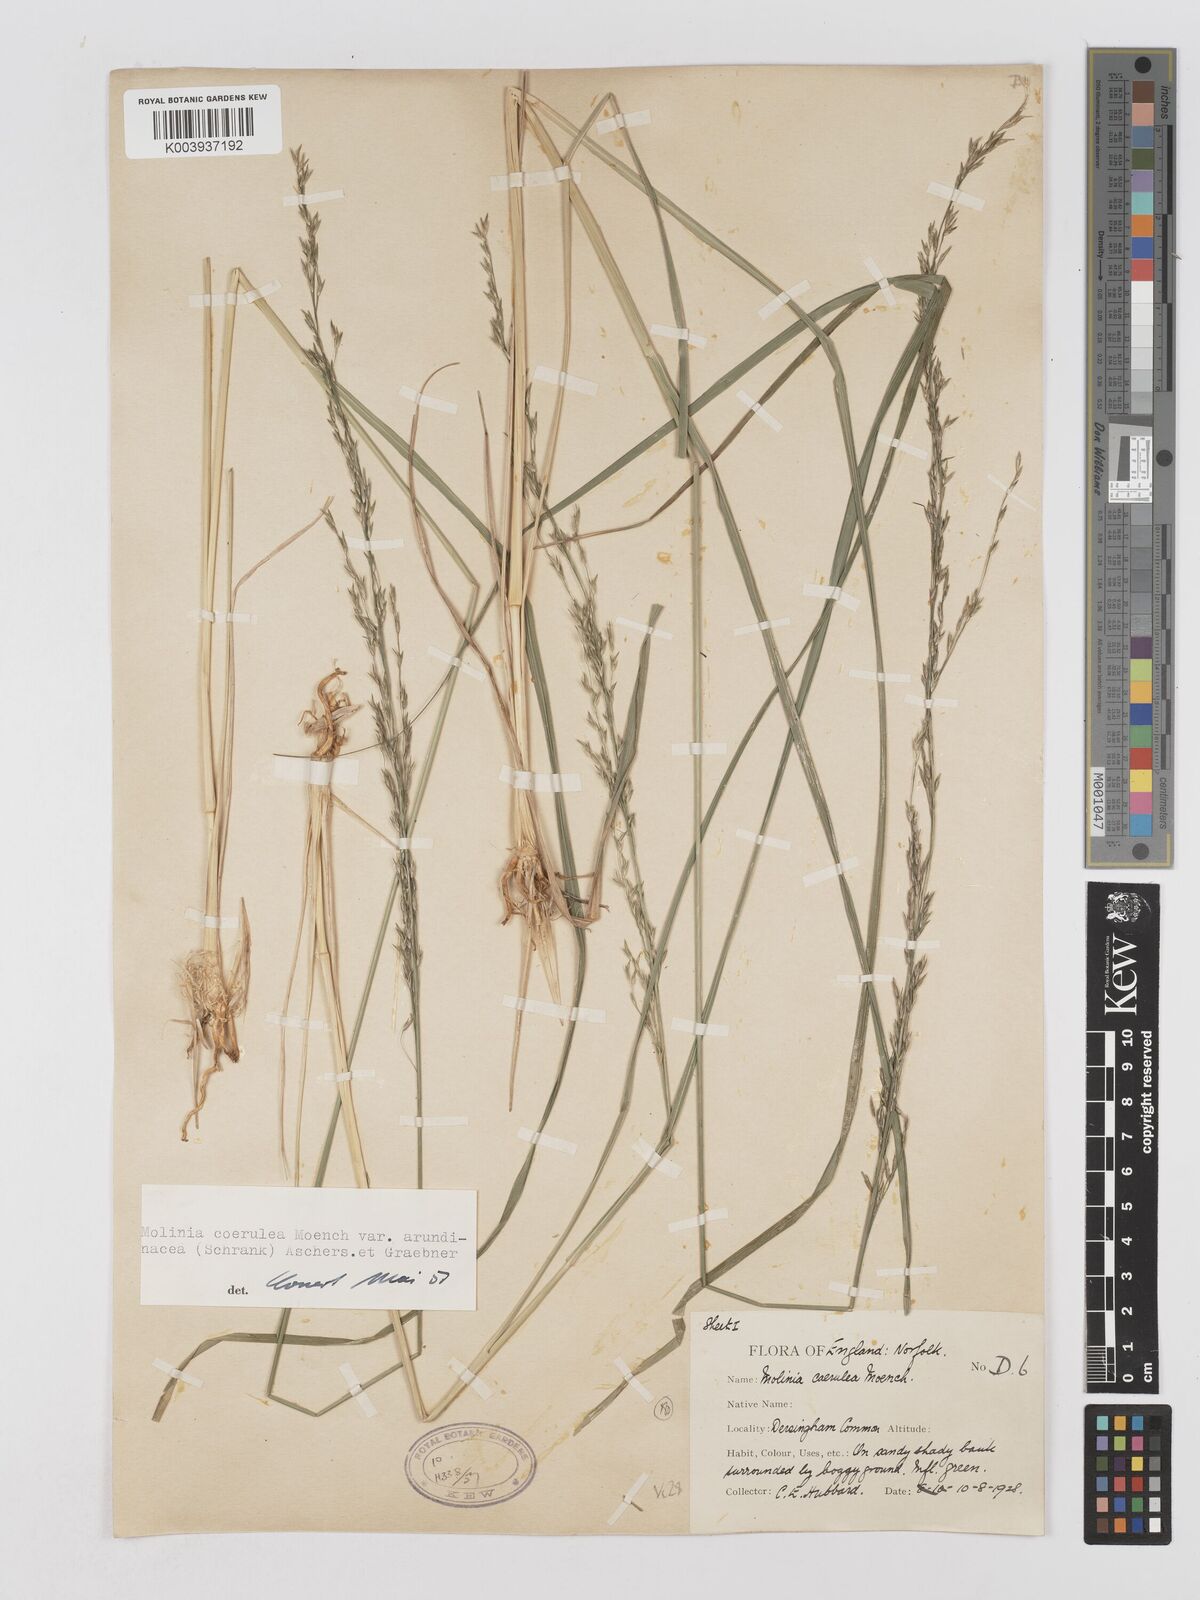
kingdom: Plantae
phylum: Tracheophyta
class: Liliopsida
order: Poales
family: Poaceae
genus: Molinia
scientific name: Molinia caerulea
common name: Purple moor-grass
